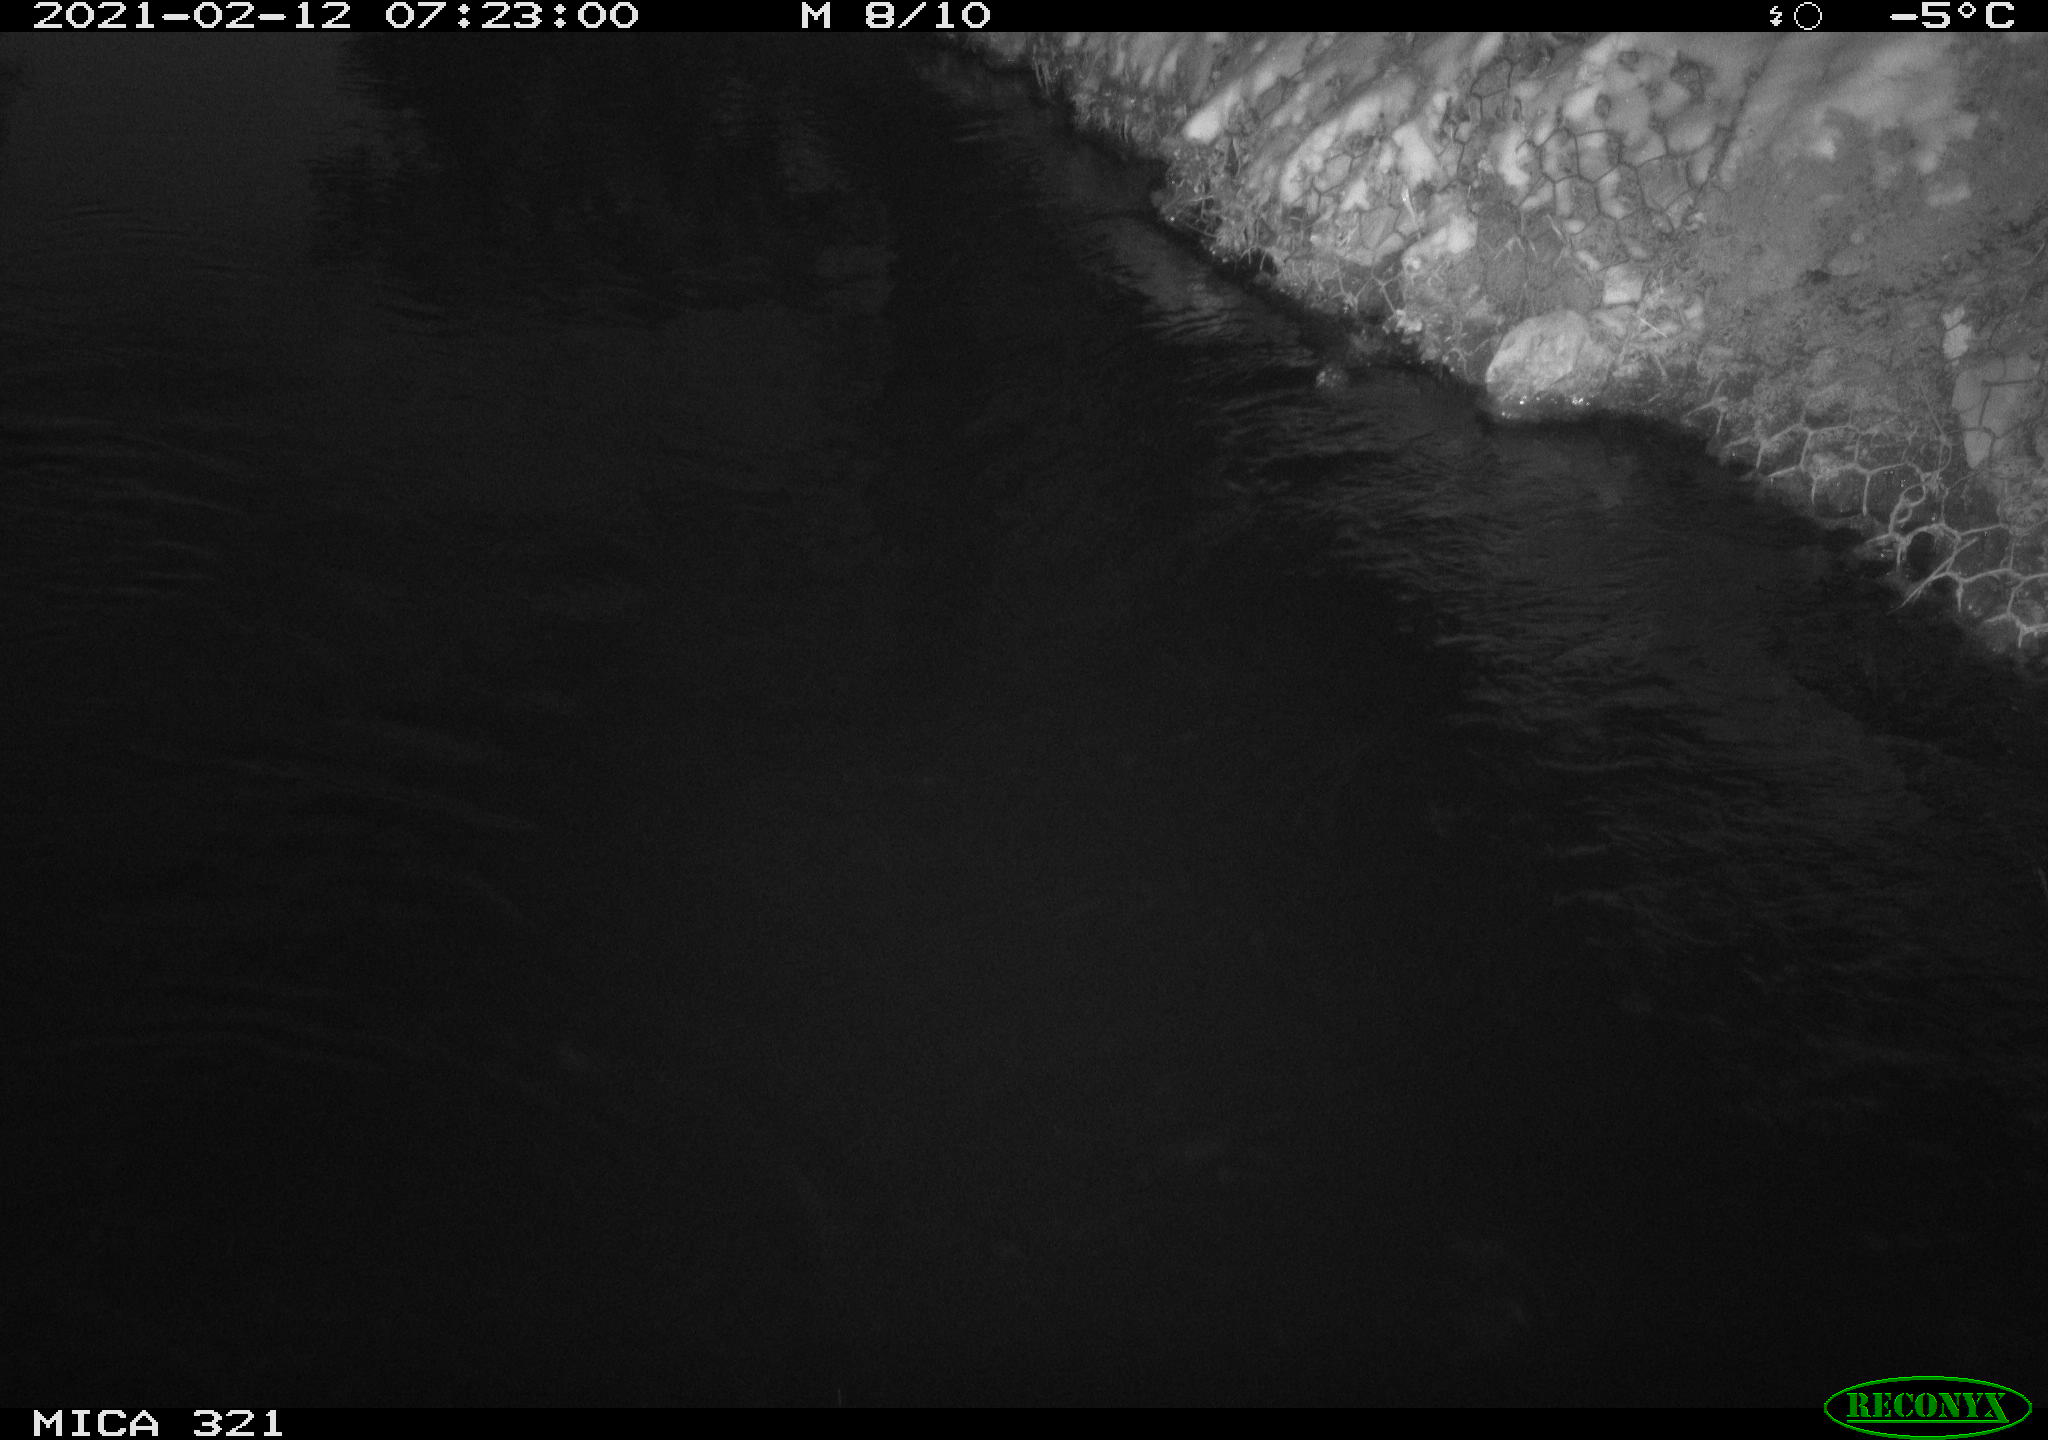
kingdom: Animalia
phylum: Chordata
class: Aves
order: Anseriformes
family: Anatidae
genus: Anas
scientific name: Anas platyrhynchos
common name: Mallard
